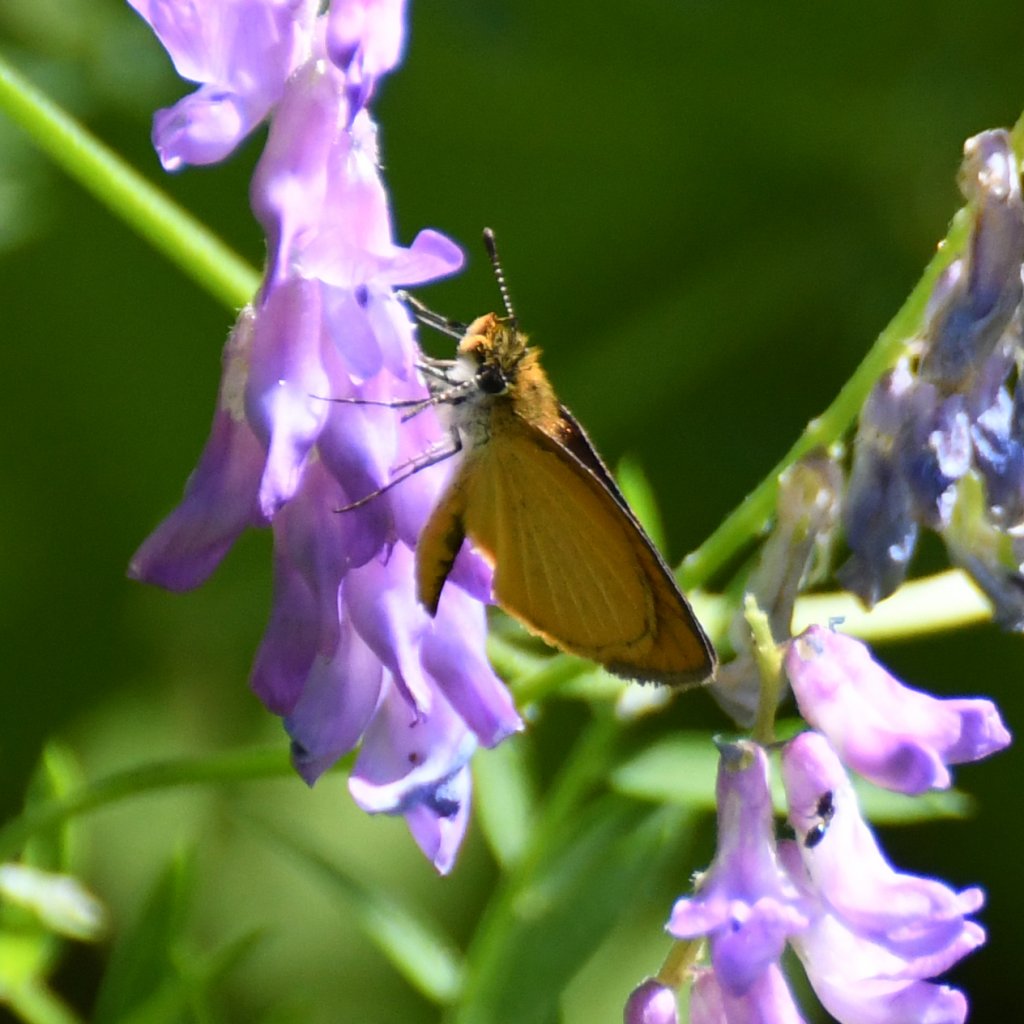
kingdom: Animalia
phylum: Arthropoda
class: Insecta
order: Lepidoptera
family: Hesperiidae
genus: Ancyloxypha
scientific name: Ancyloxypha numitor
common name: Least Skipper
